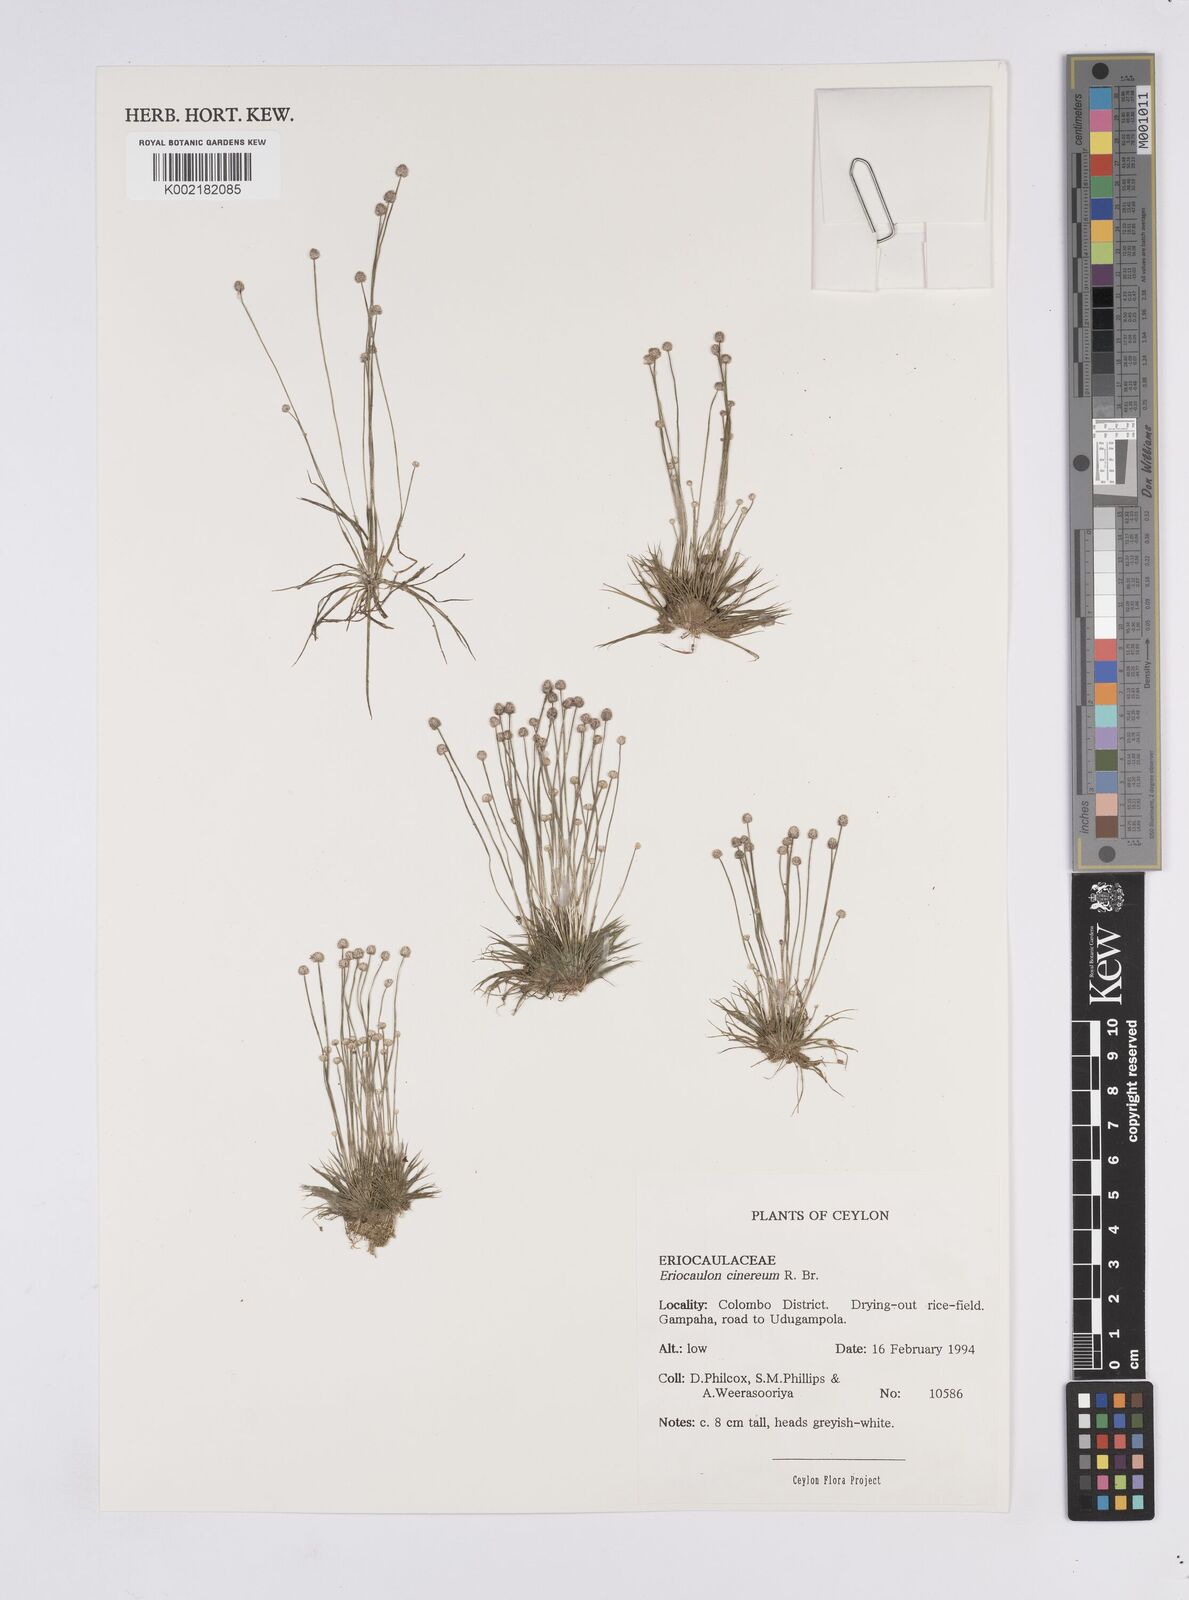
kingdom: Plantae
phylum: Tracheophyta
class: Liliopsida
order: Poales
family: Eriocaulaceae
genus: Eriocaulon
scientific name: Eriocaulon cinereum
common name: Ashy pipewort
